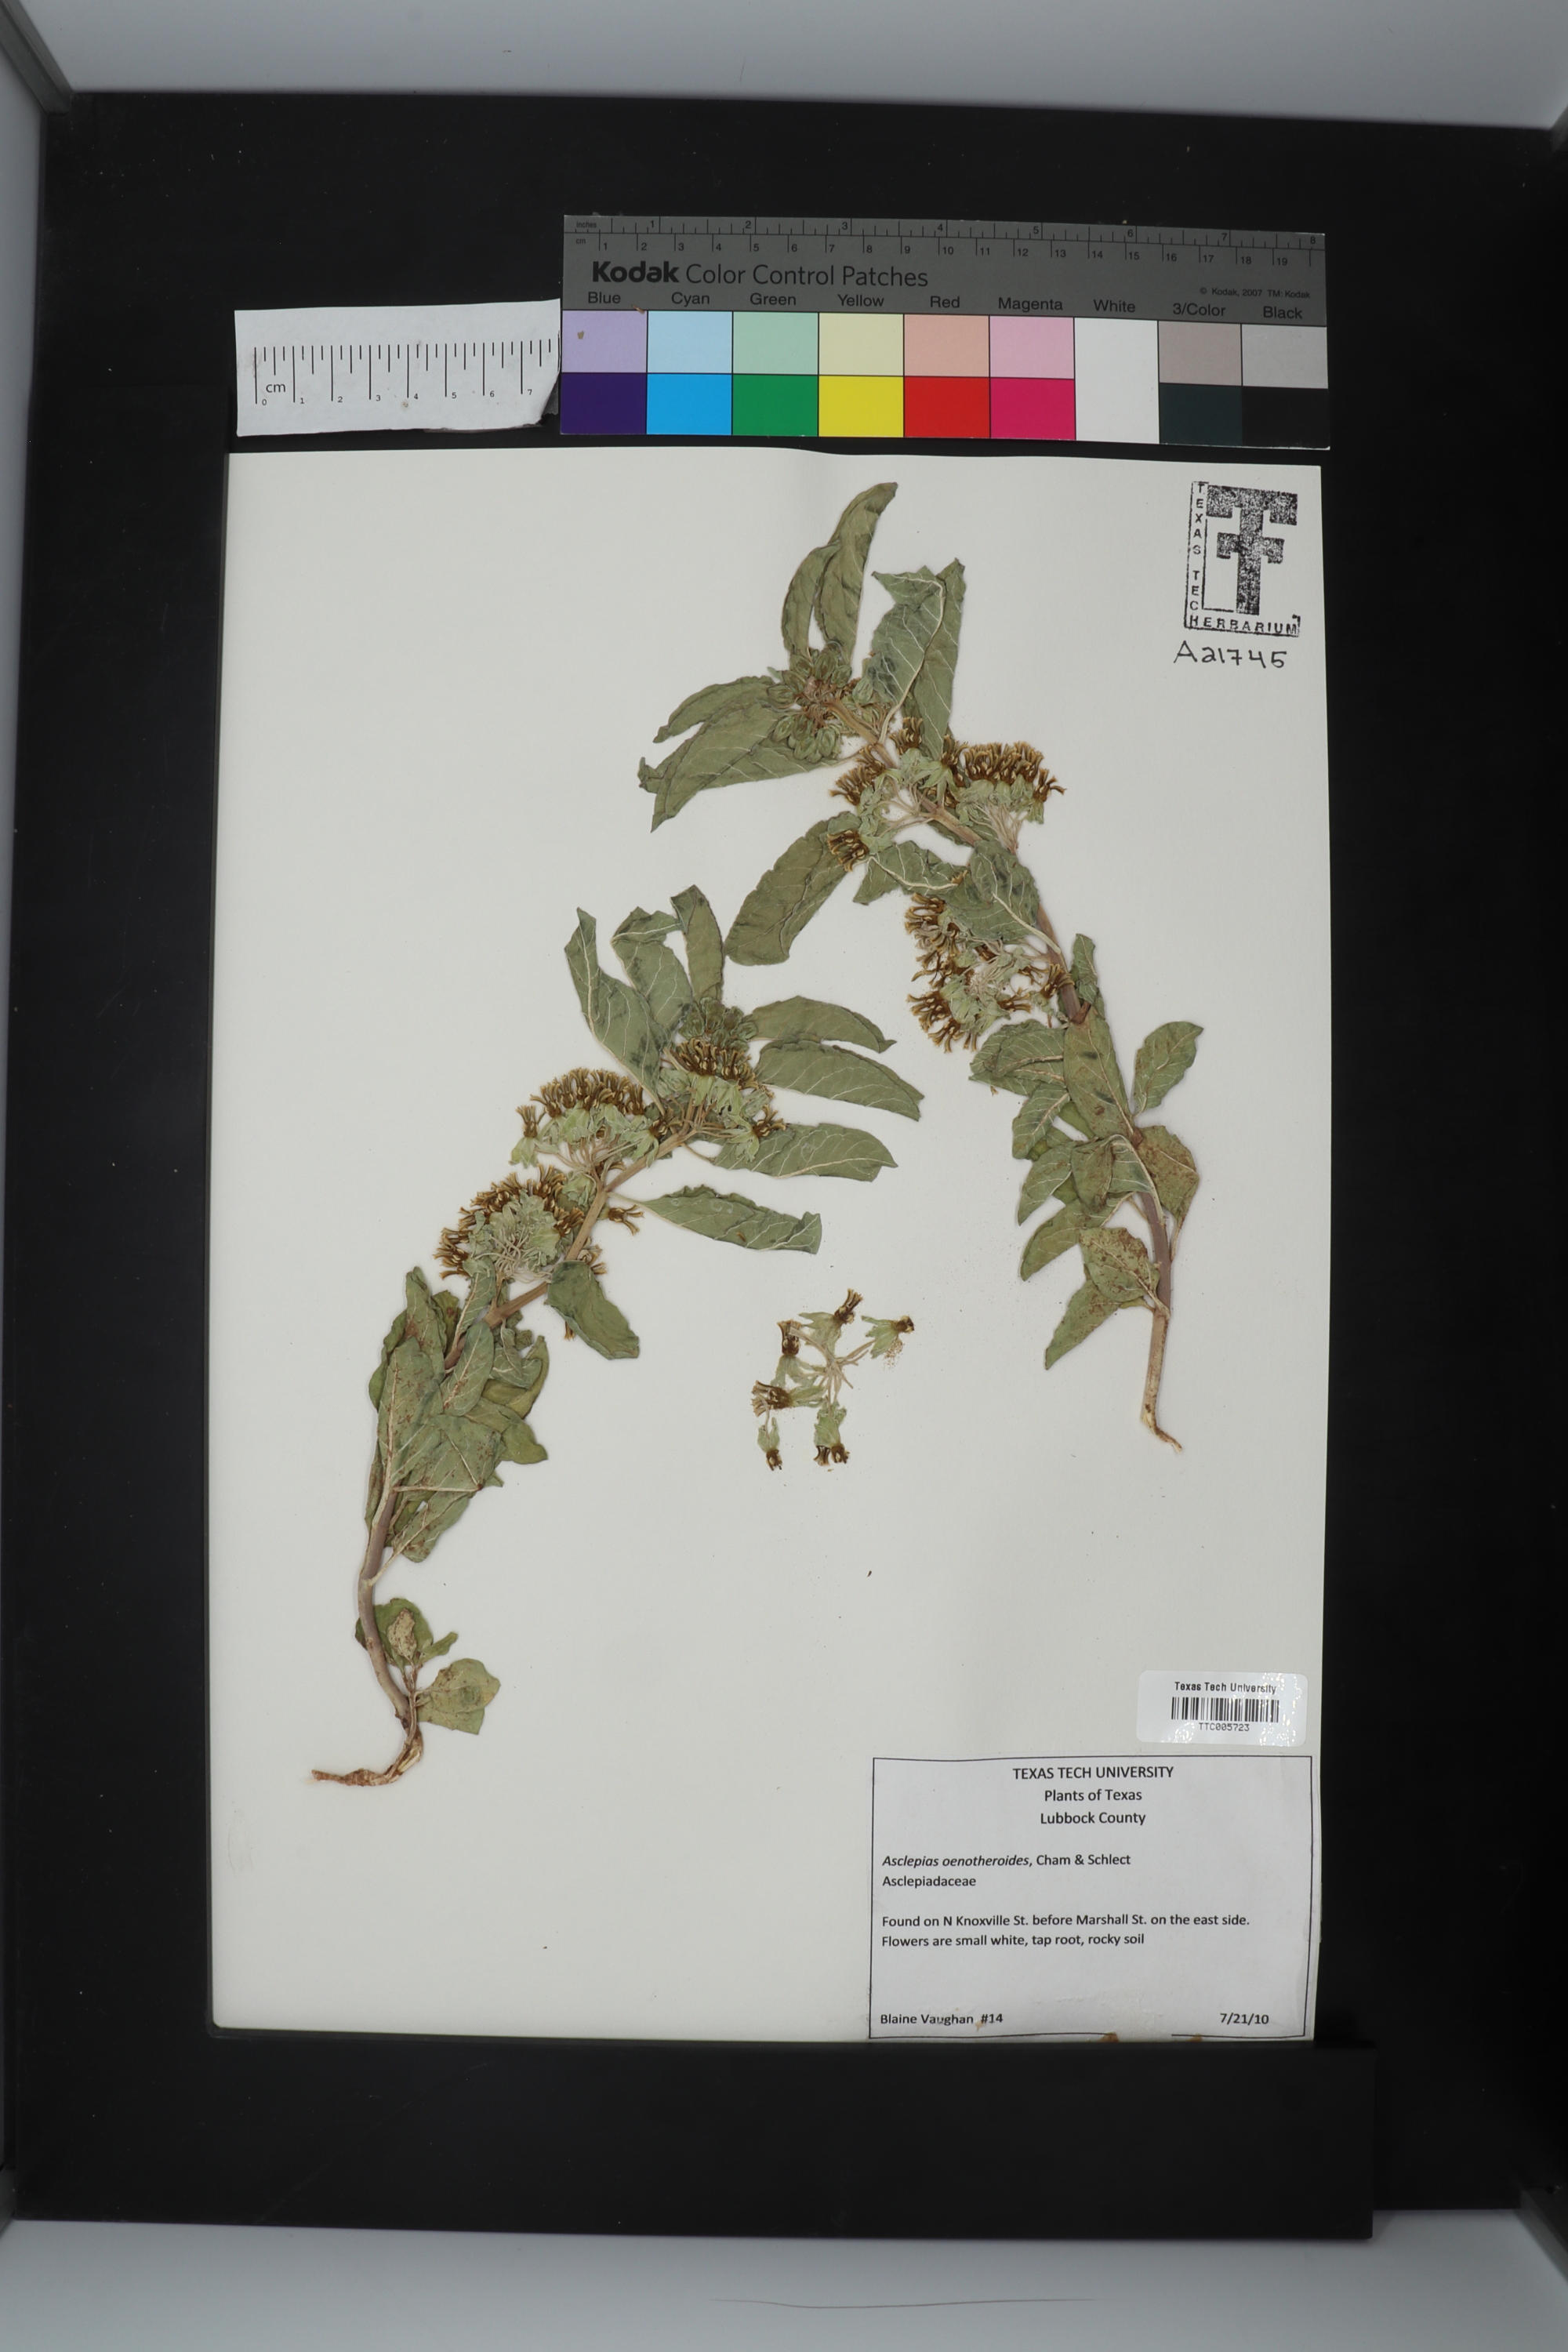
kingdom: Plantae
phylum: Tracheophyta
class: Magnoliopsida
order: Gentianales
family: Apocynaceae
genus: Asclepias
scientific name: Asclepias oenotheroides
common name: Zizotes milkweed
